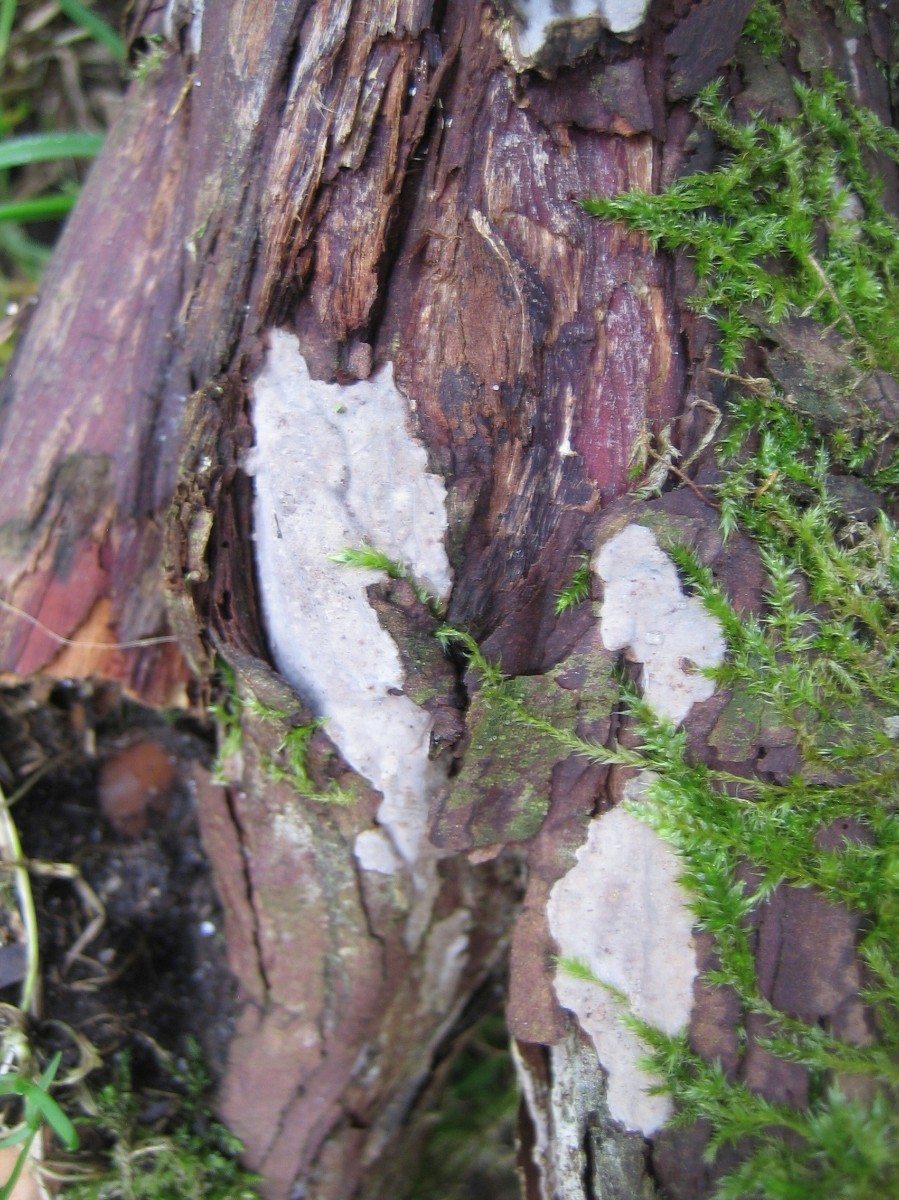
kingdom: Fungi
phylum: Basidiomycota
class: Agaricomycetes
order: Russulales
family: Echinodontiaceae
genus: Amylostereum
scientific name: Amylostereum laevigatum
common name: ene-lædersvamp
